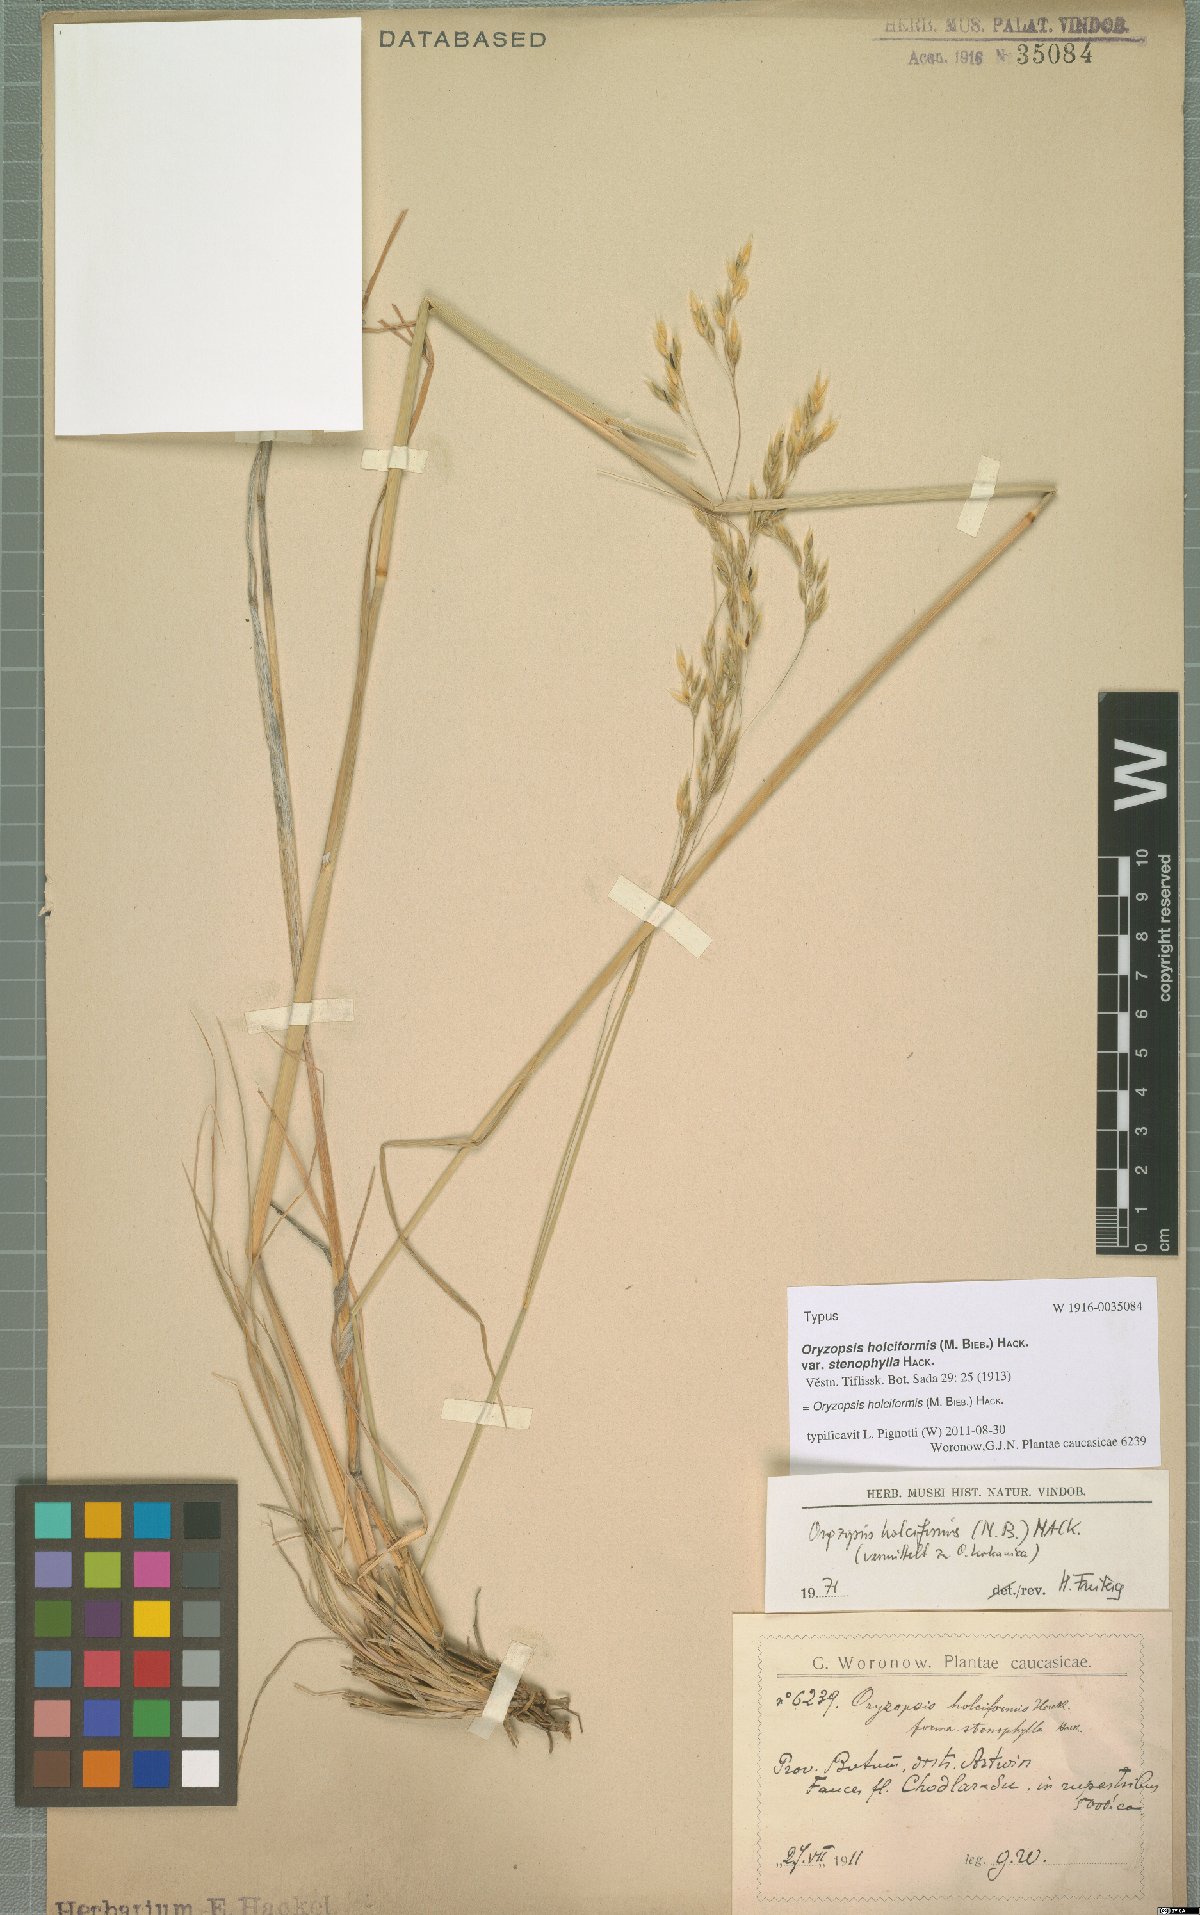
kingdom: Plantae
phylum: Tracheophyta
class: Liliopsida
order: Poales
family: Poaceae
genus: Piptatherum
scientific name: Piptatherum holciforme
